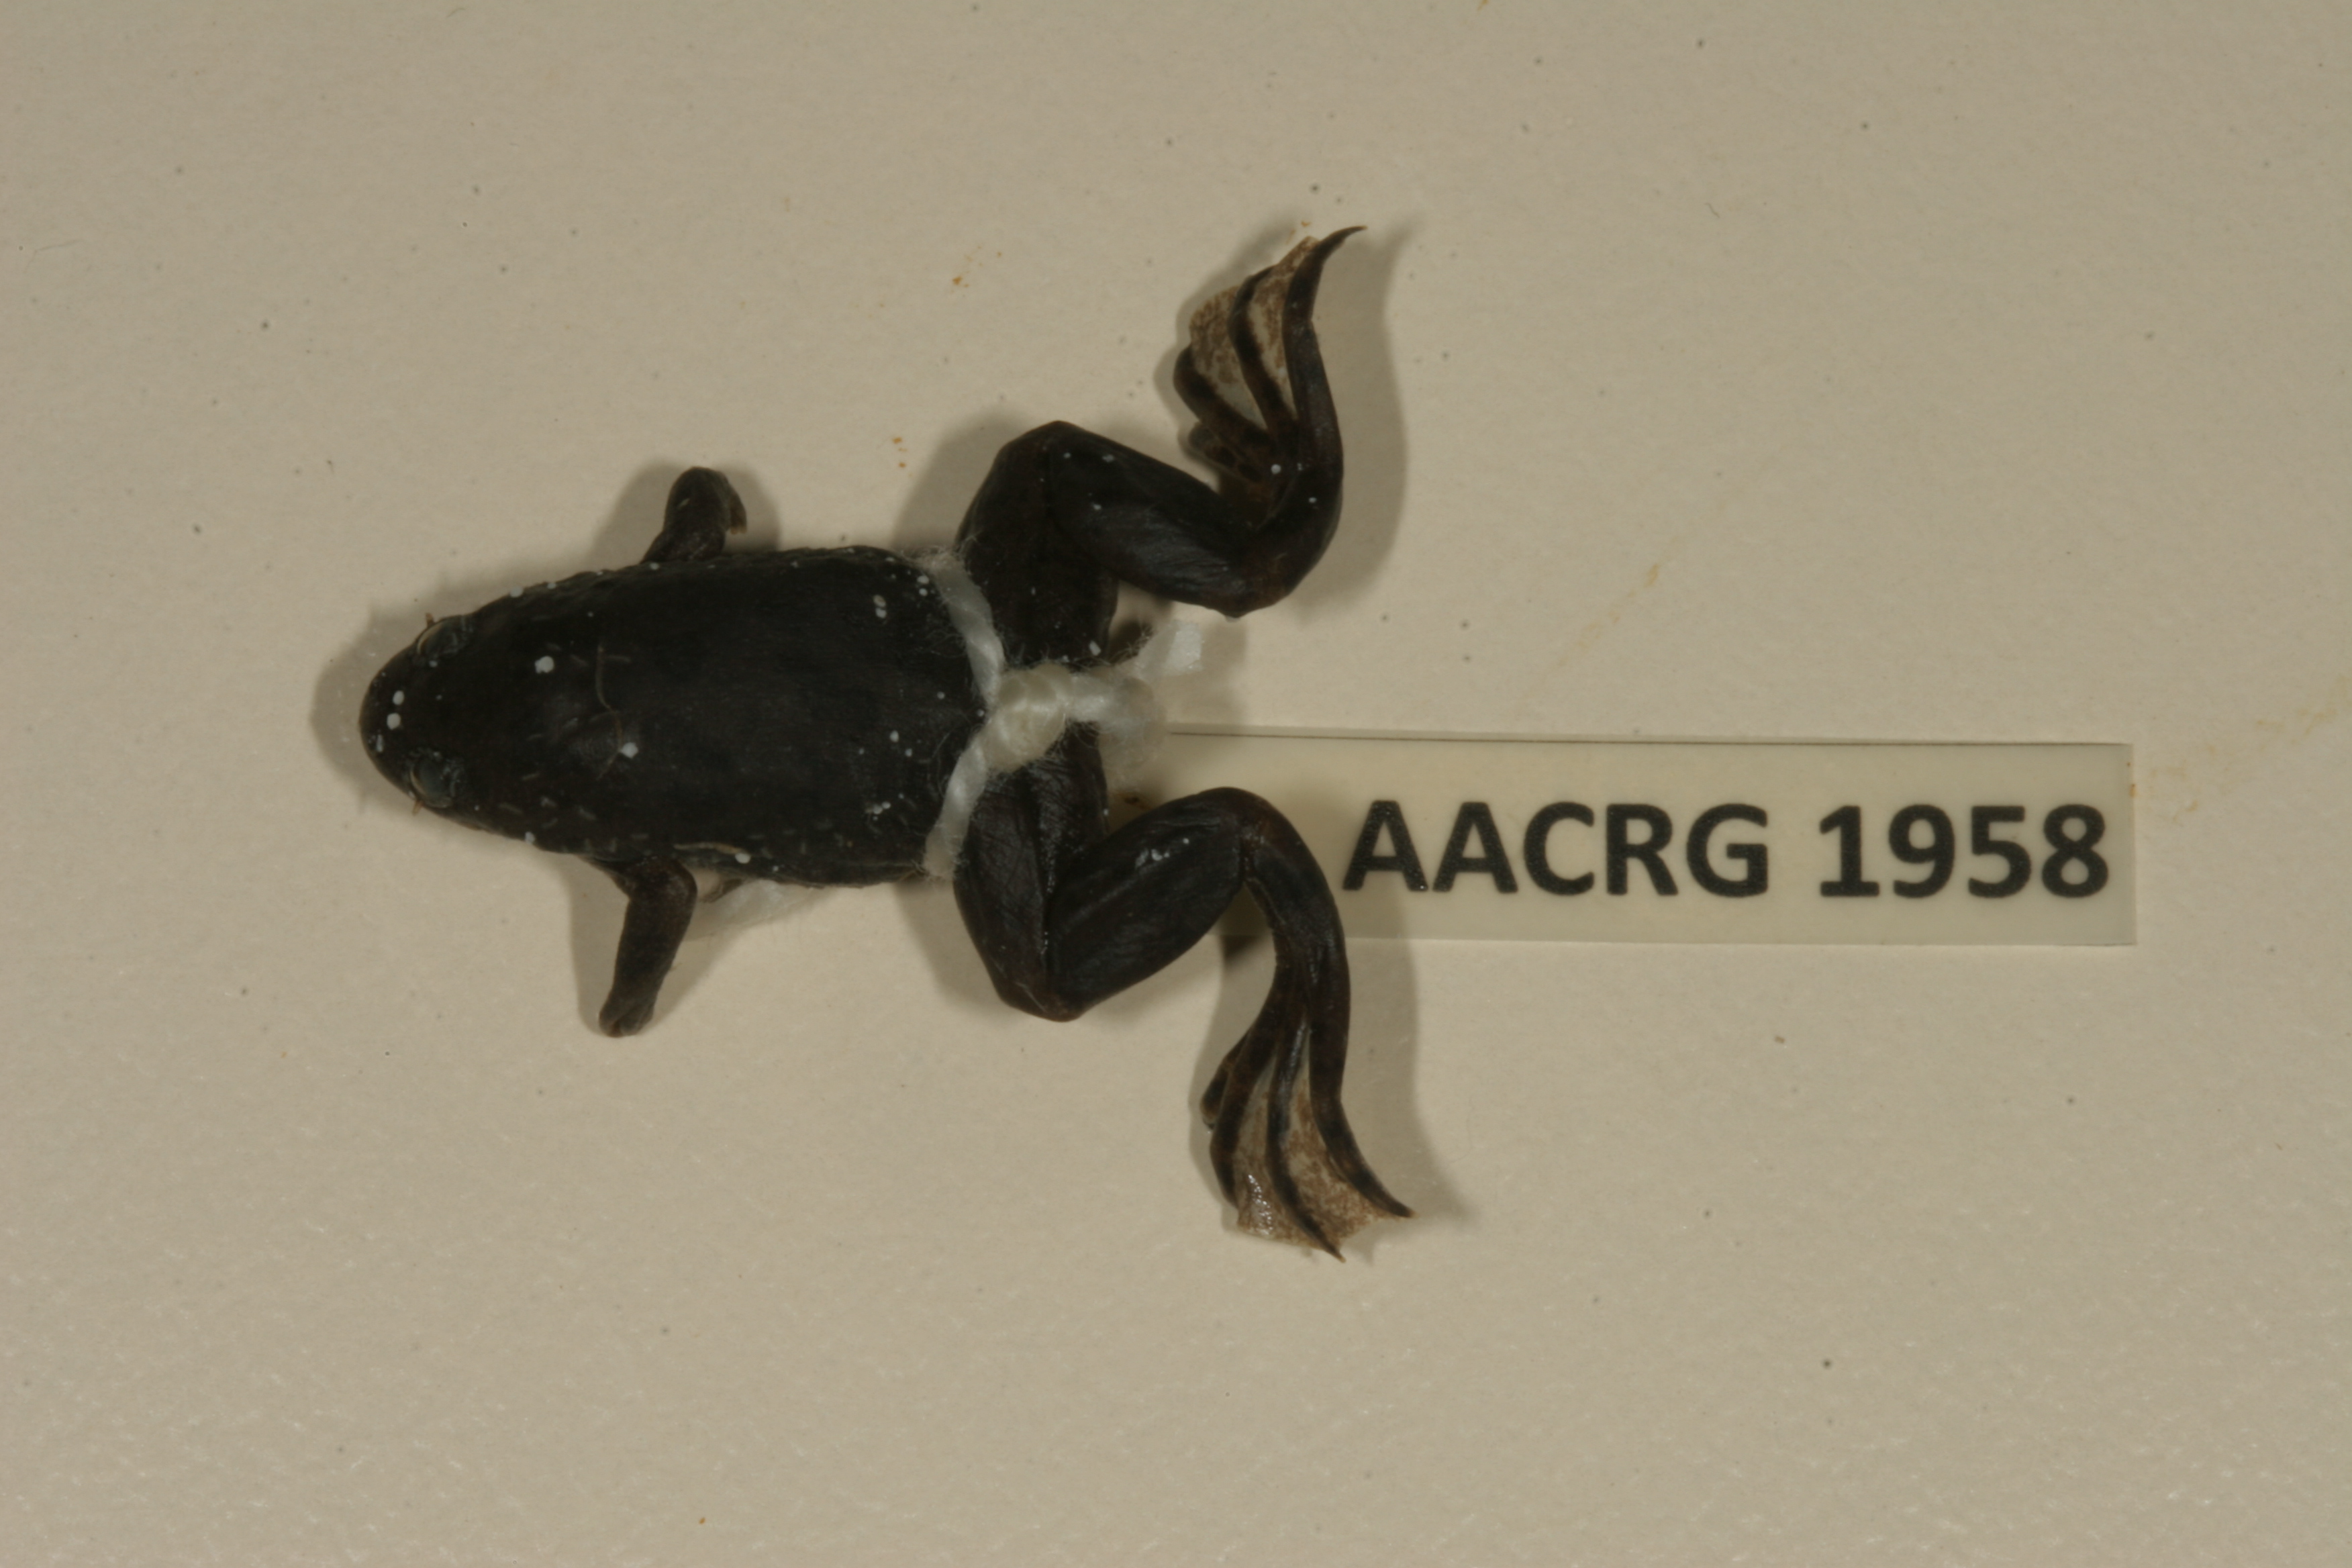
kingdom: Animalia
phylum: Chordata
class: Amphibia
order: Anura
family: Pipidae
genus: Xenopus
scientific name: Xenopus petersii
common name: Peters' clawed frog
